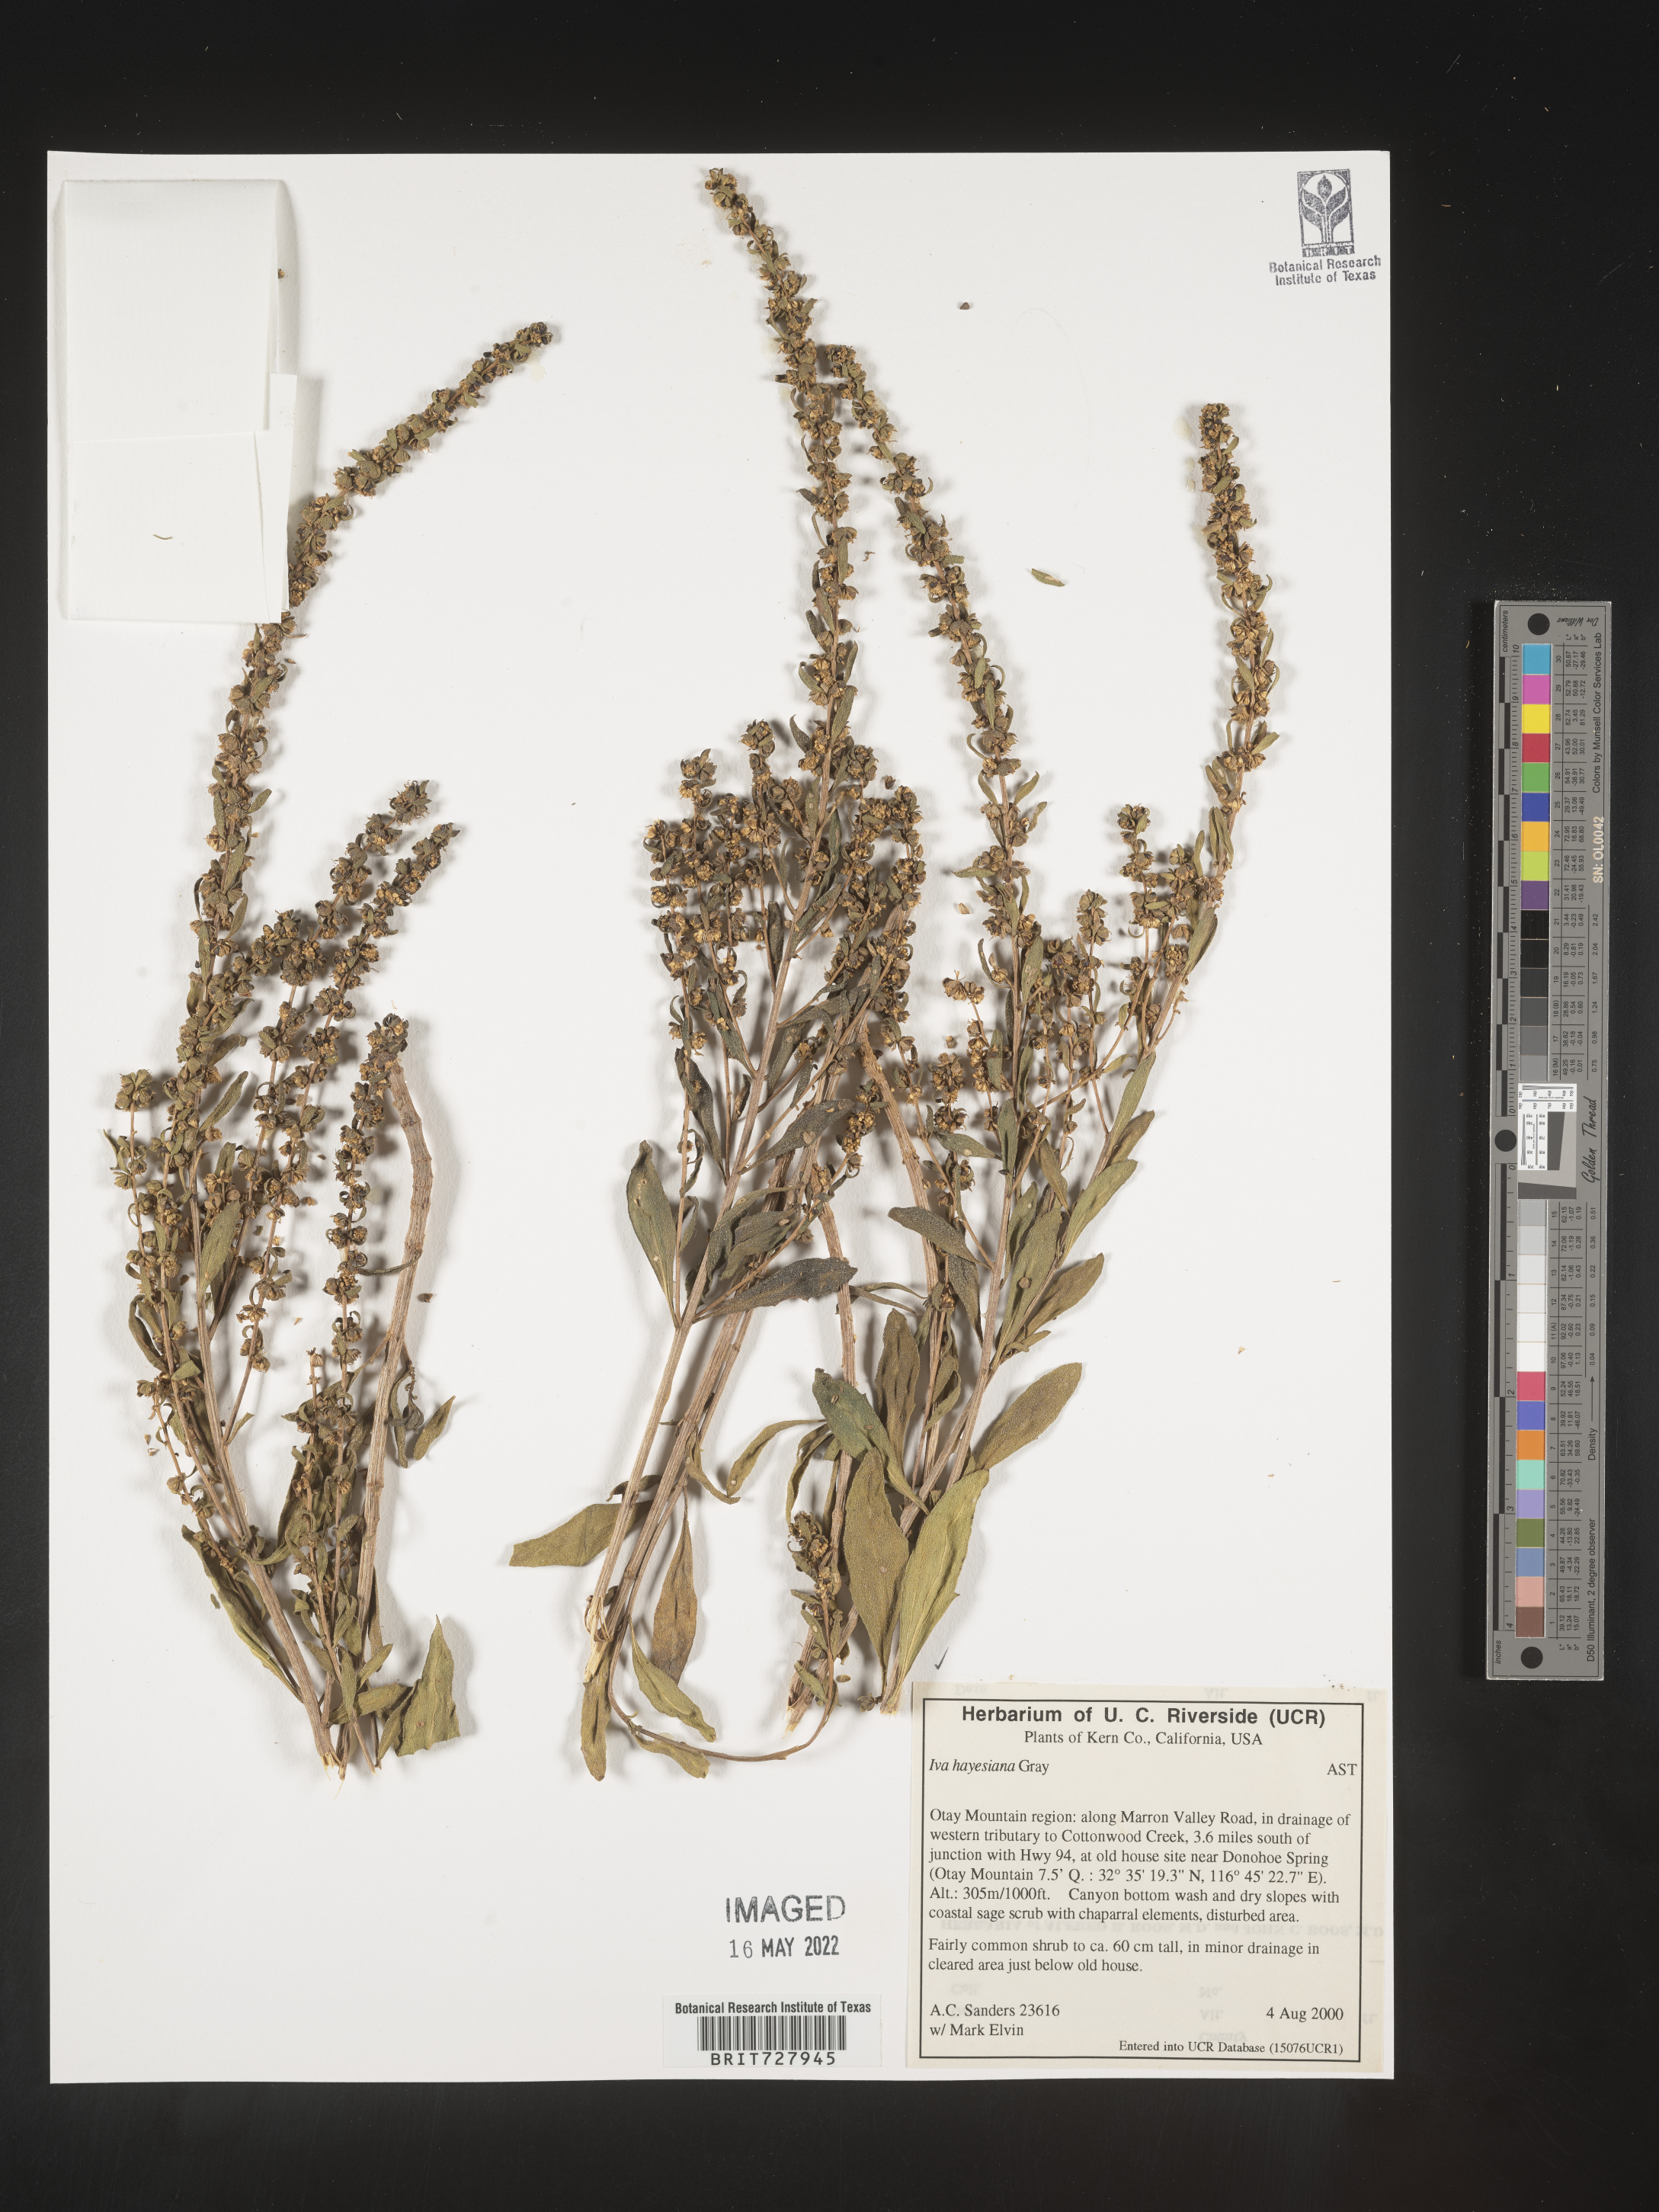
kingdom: Plantae
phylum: Tracheophyta
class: Magnoliopsida
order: Asterales
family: Asteraceae
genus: Iva
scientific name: Iva hayesiana
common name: San diego marsh-elder
